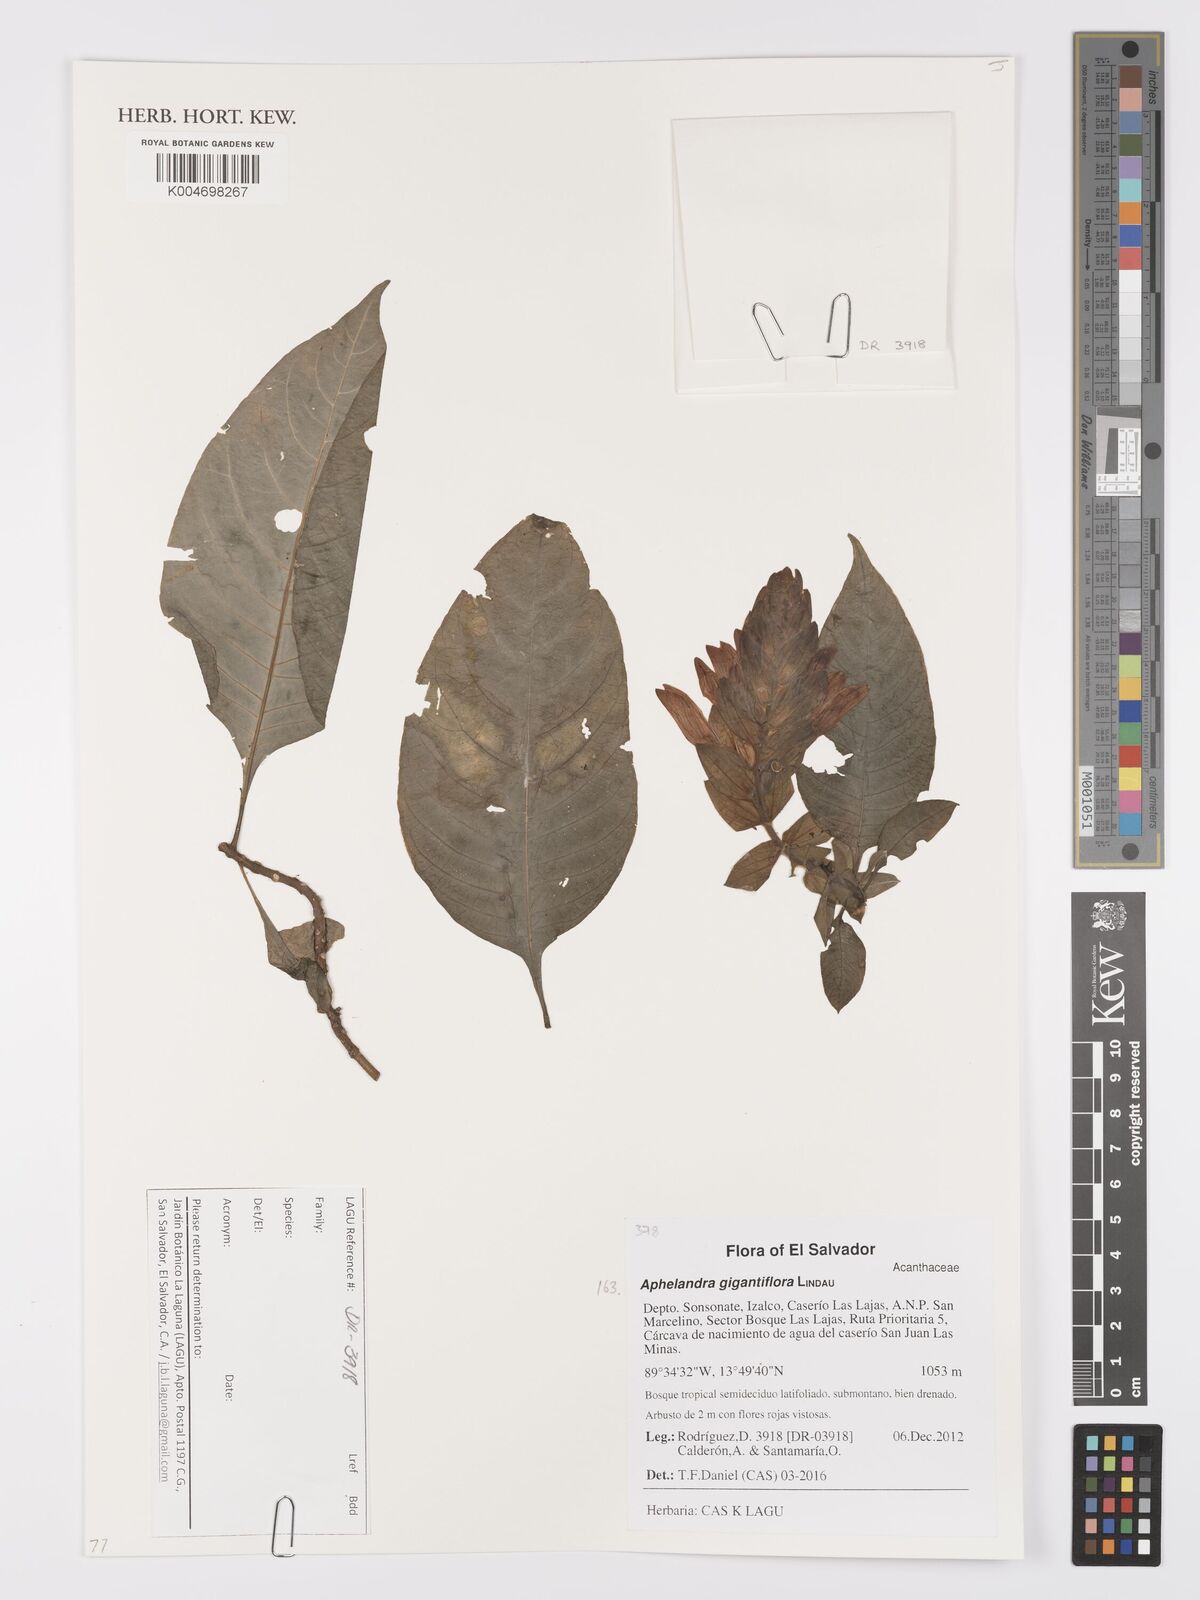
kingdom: Plantae
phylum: Tracheophyta
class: Magnoliopsida
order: Lamiales
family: Acanthaceae
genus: Aphelandra
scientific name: Aphelandra gigantiflora
